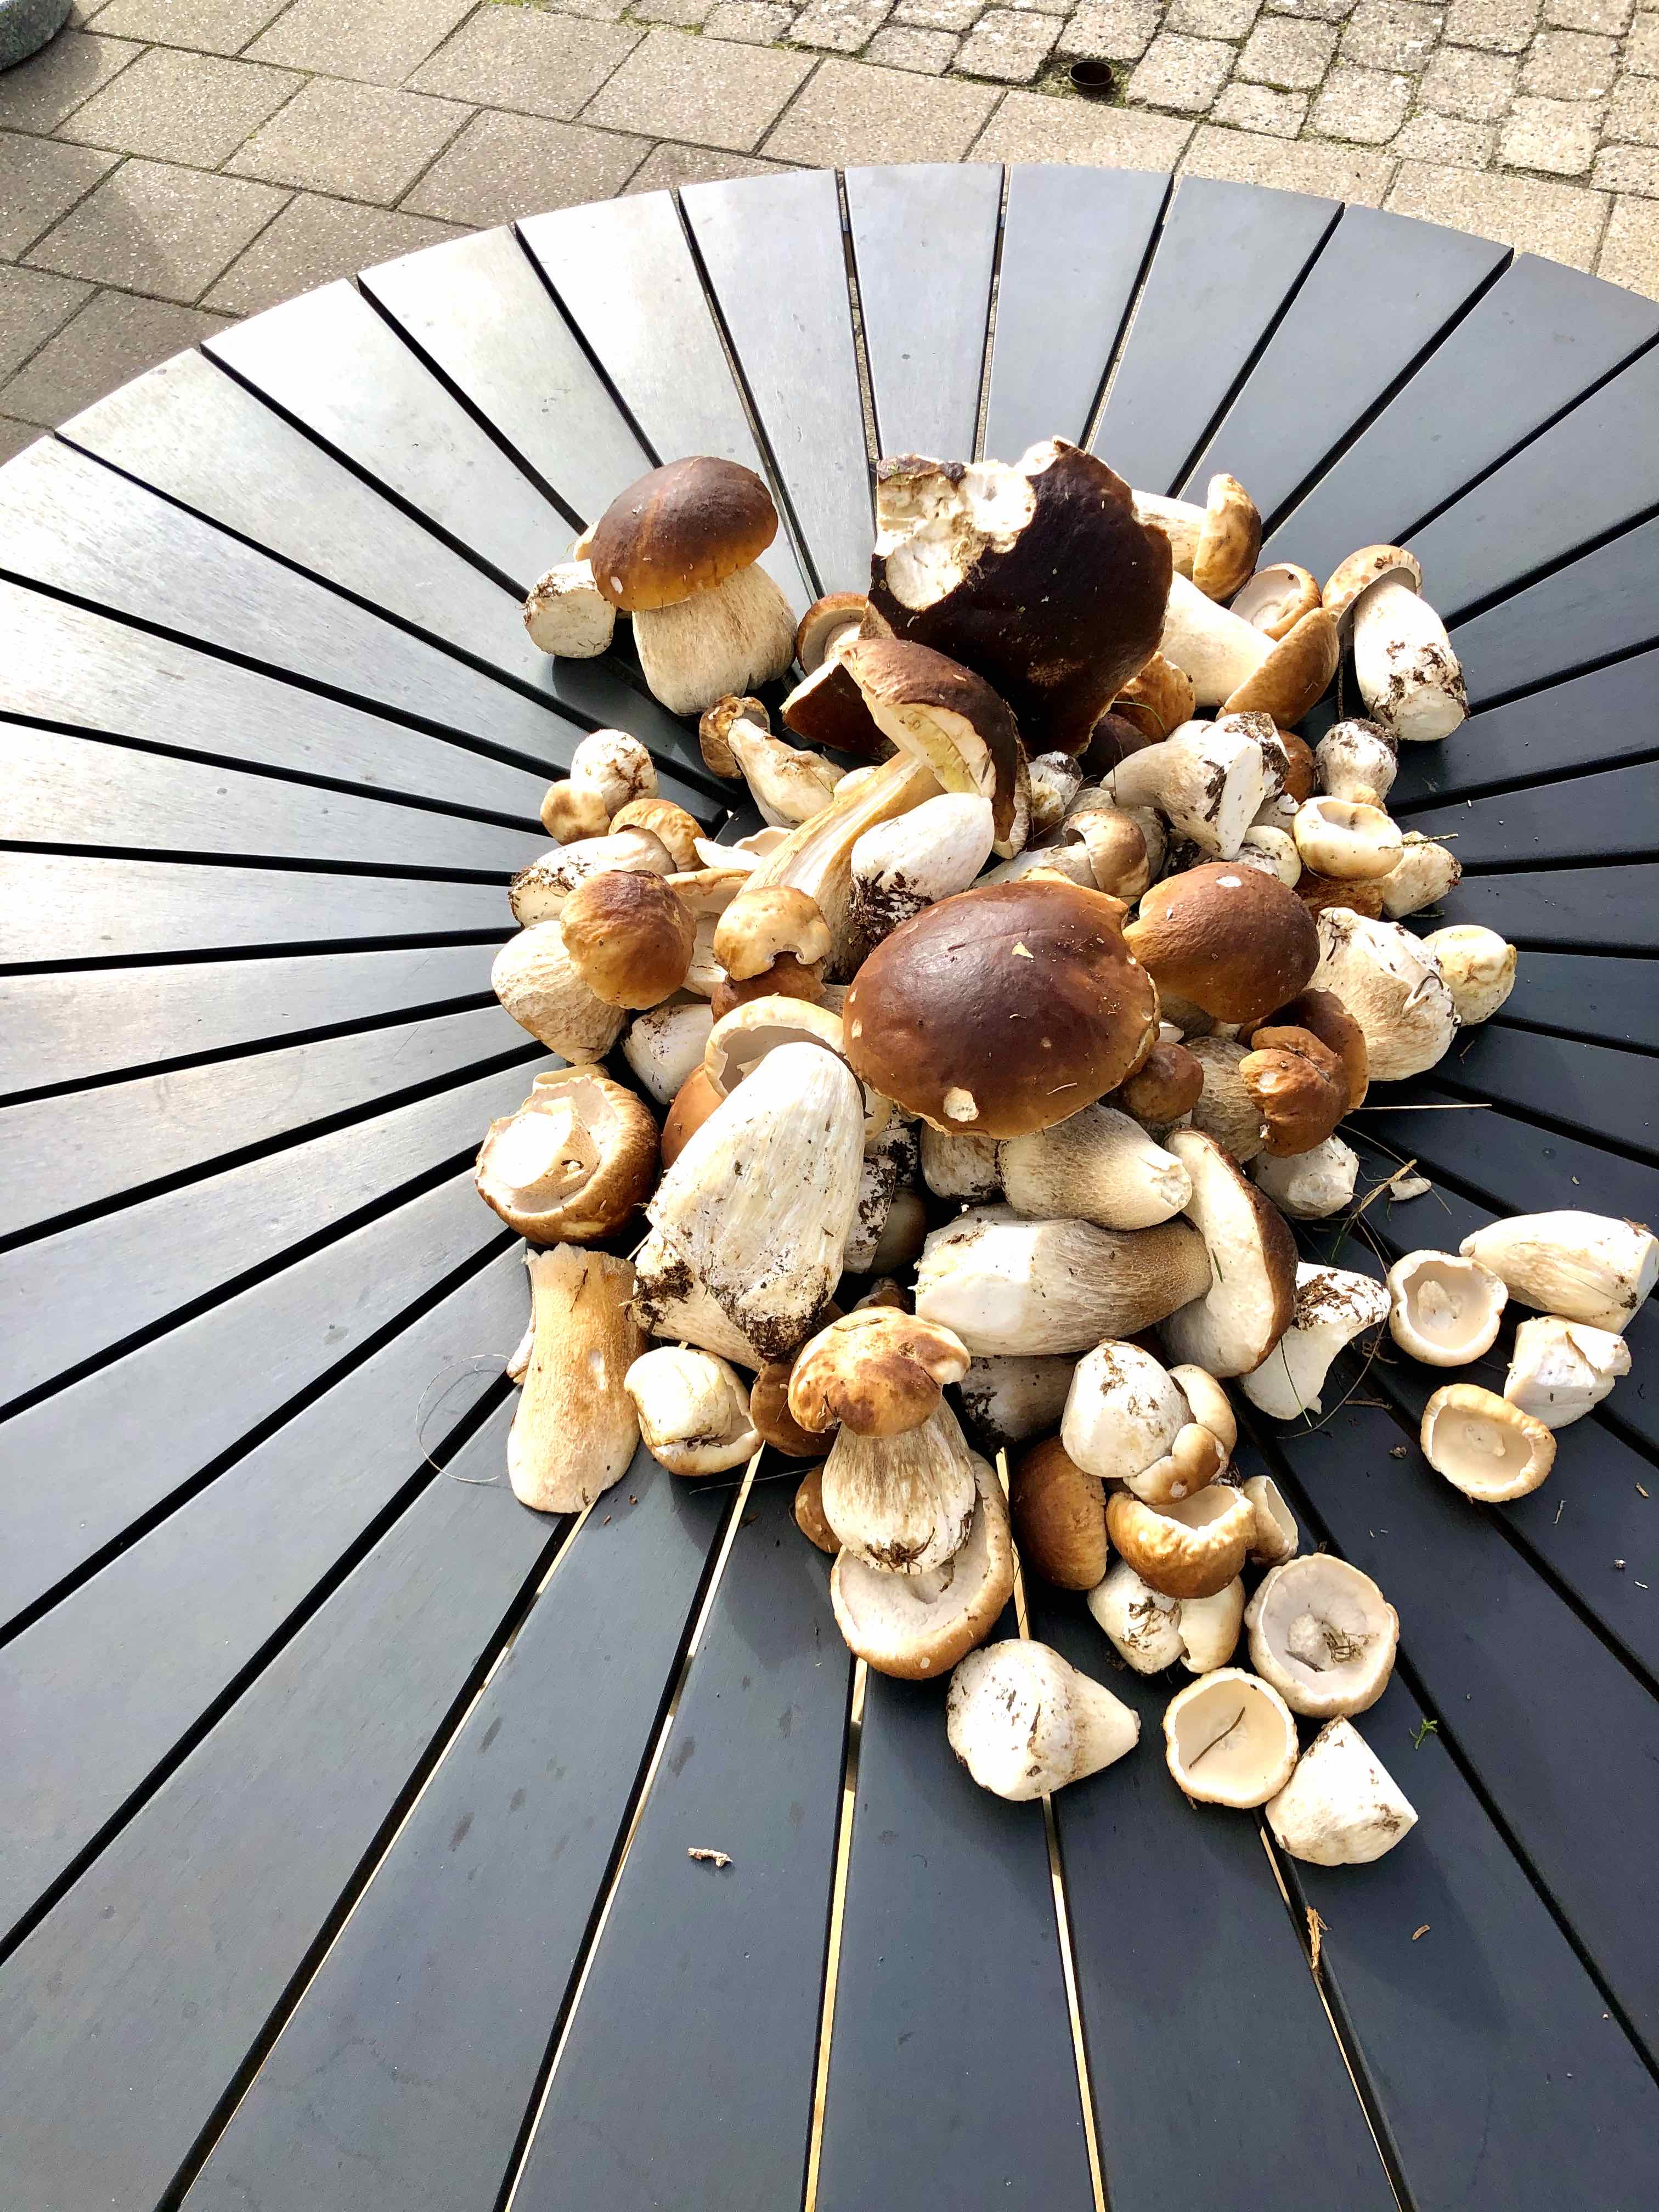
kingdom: Fungi
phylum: Basidiomycota
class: Agaricomycetes
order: Boletales
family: Boletaceae
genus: Boletus
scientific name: Boletus edulis
